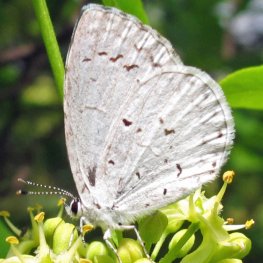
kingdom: Animalia
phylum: Arthropoda
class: Insecta
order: Lepidoptera
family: Lycaenidae
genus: Celastrina
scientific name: Celastrina serotina
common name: Cherry Gall Azure
